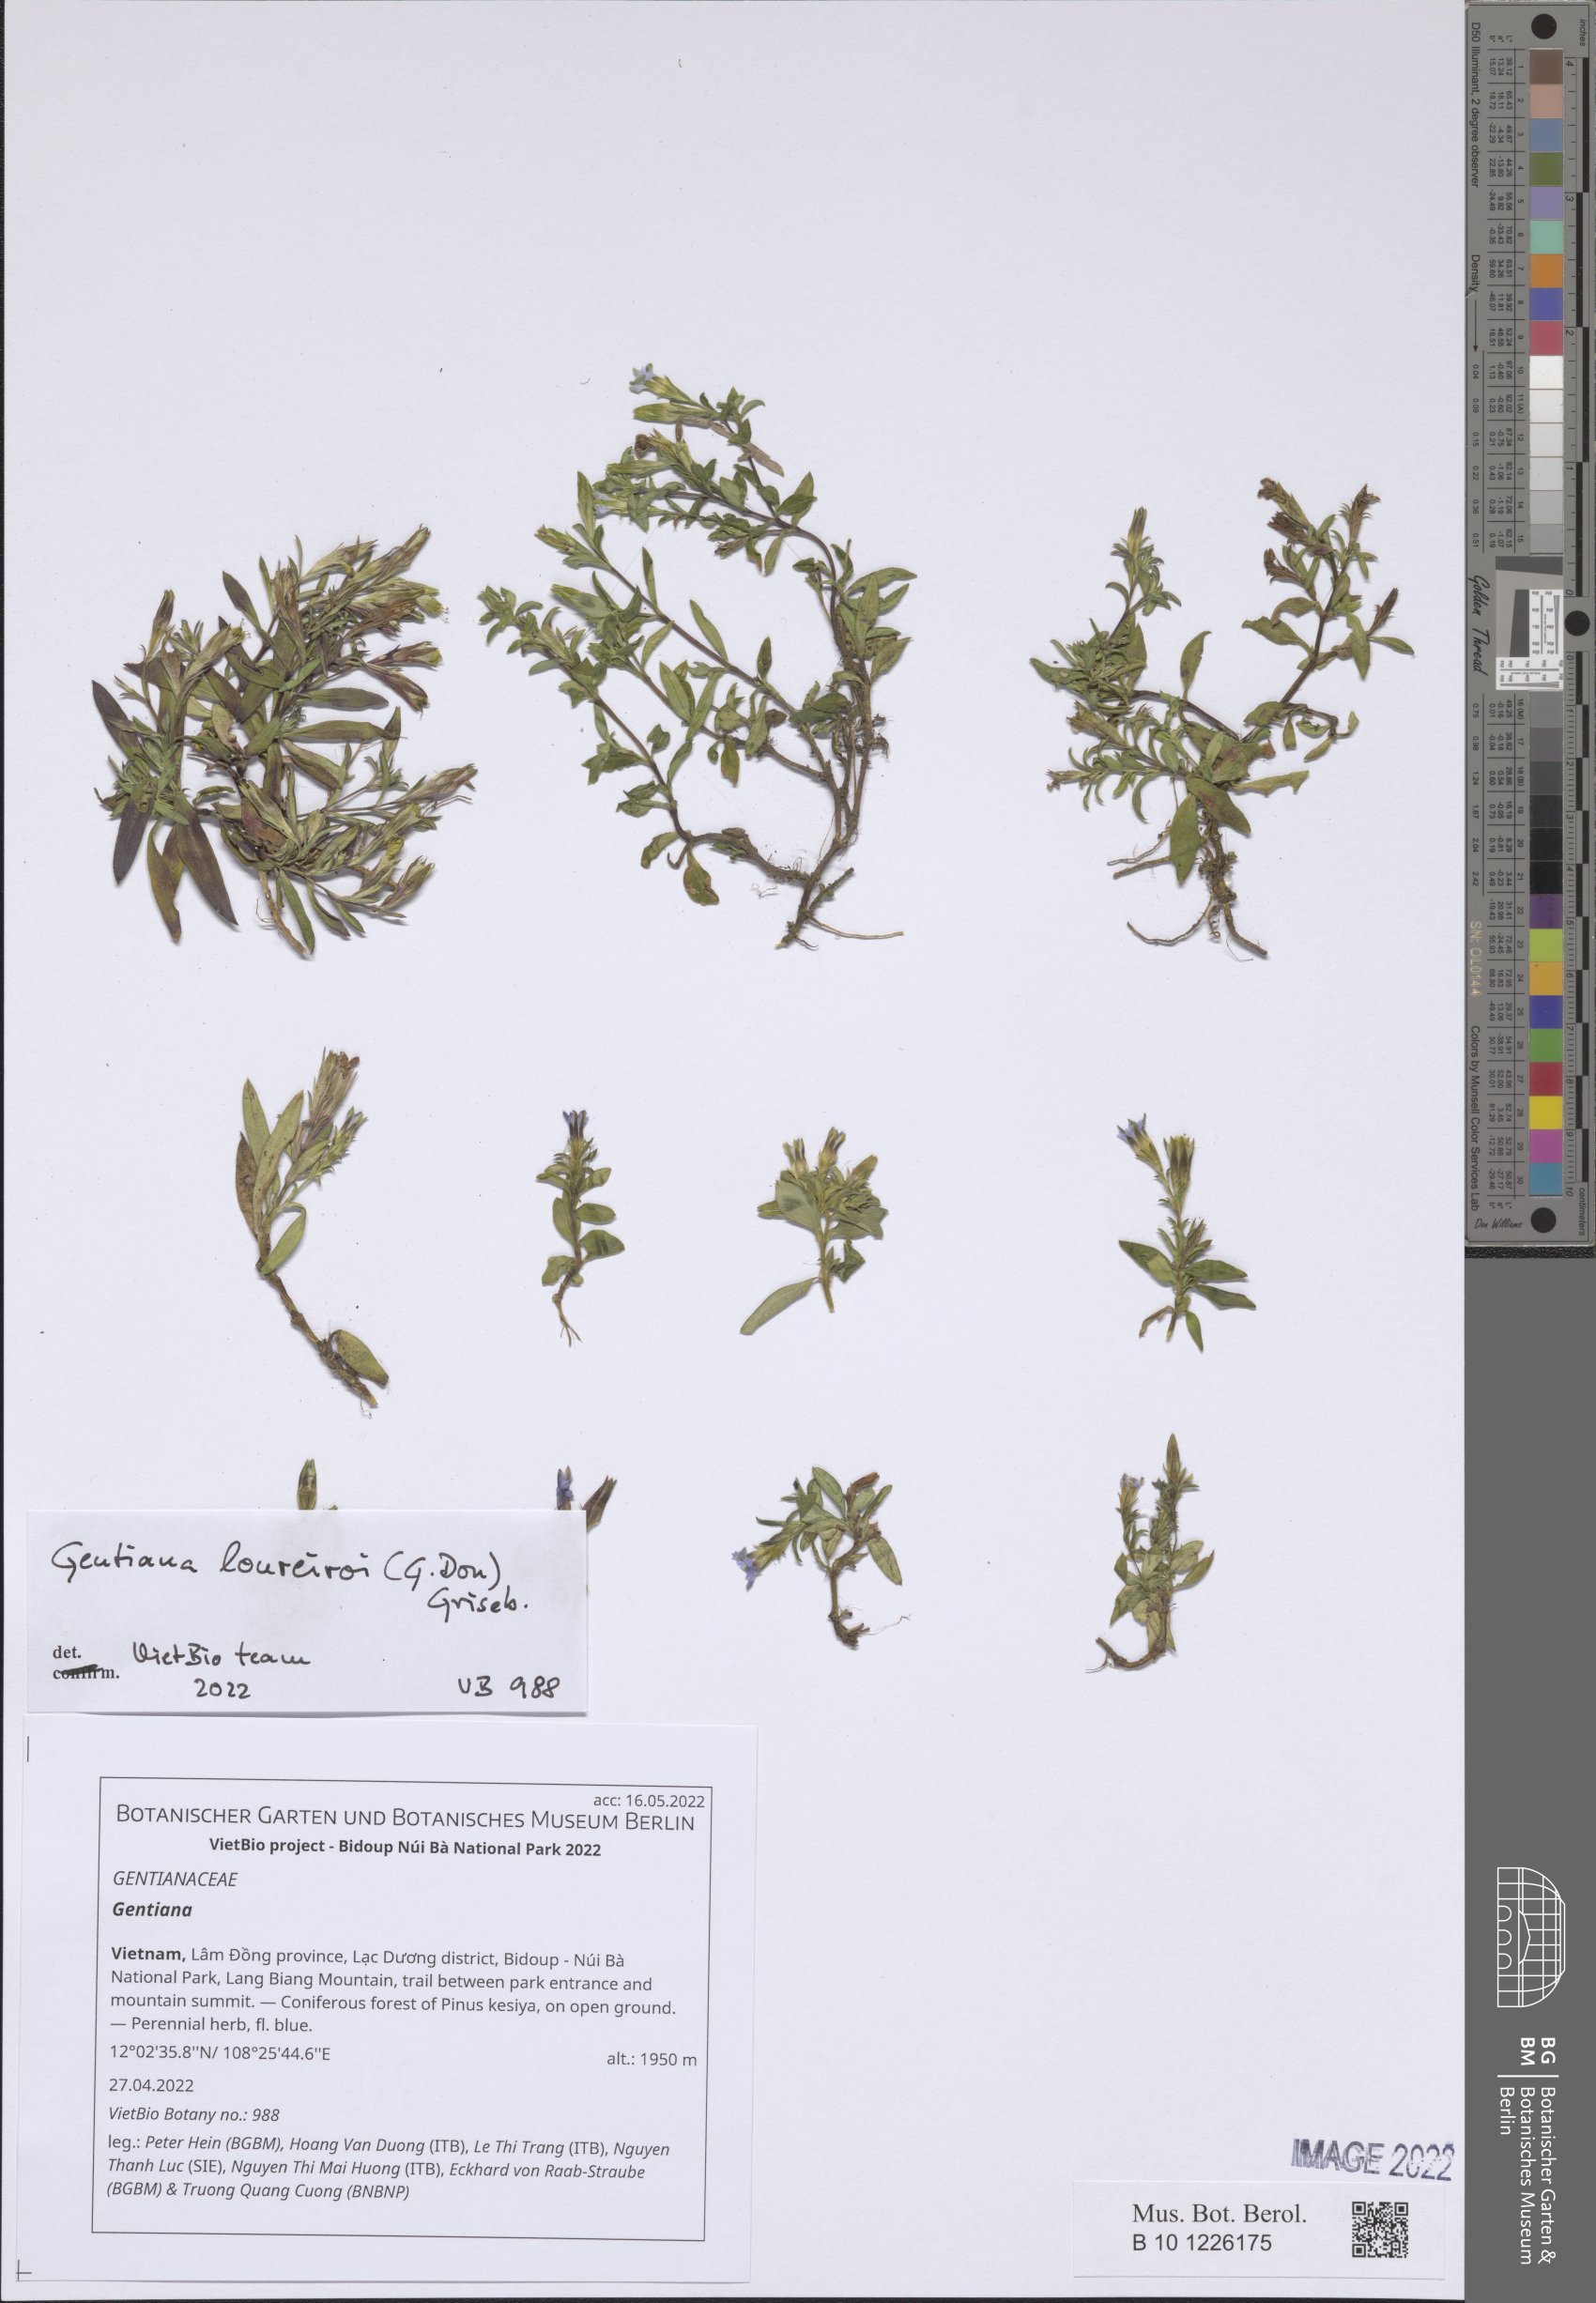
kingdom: Plantae
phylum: Tracheophyta
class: Magnoliopsida
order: Gentianales
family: Gentianaceae
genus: Gentiana
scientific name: Gentiana
